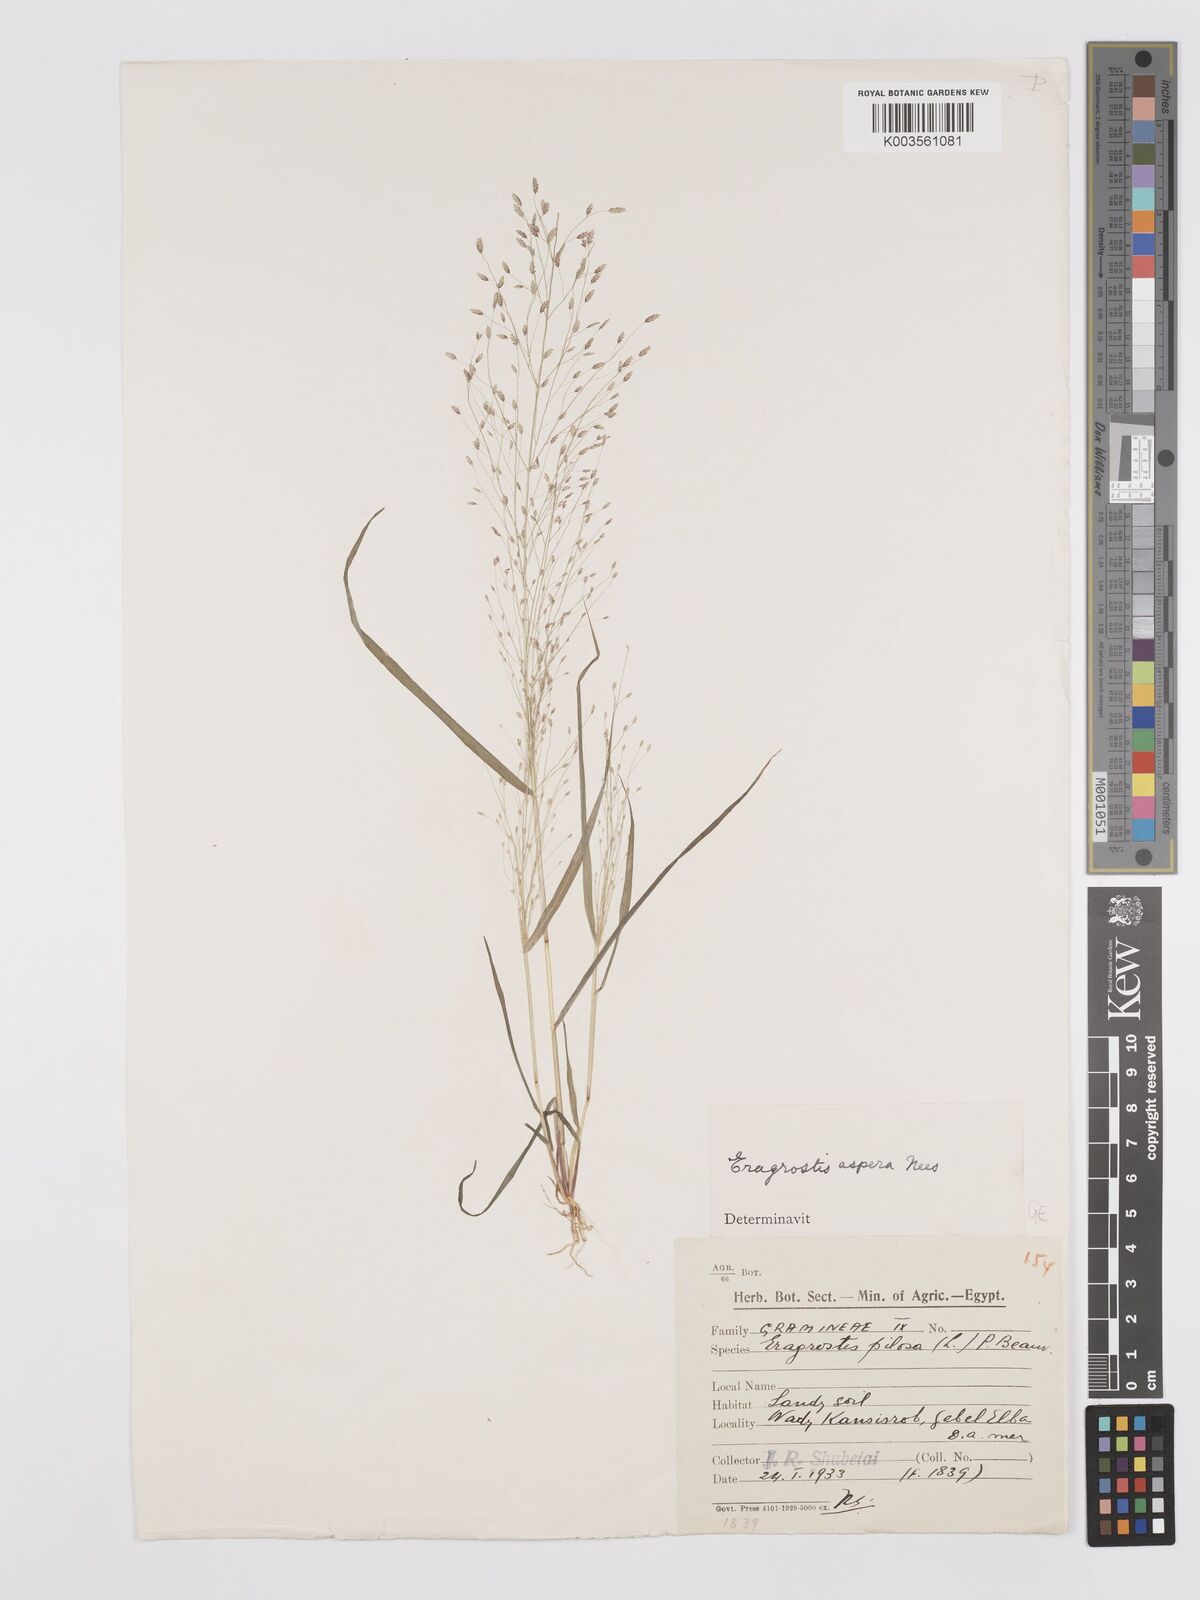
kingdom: Plantae
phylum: Tracheophyta
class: Liliopsida
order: Poales
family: Poaceae
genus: Eragrostis
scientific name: Eragrostis aspera
